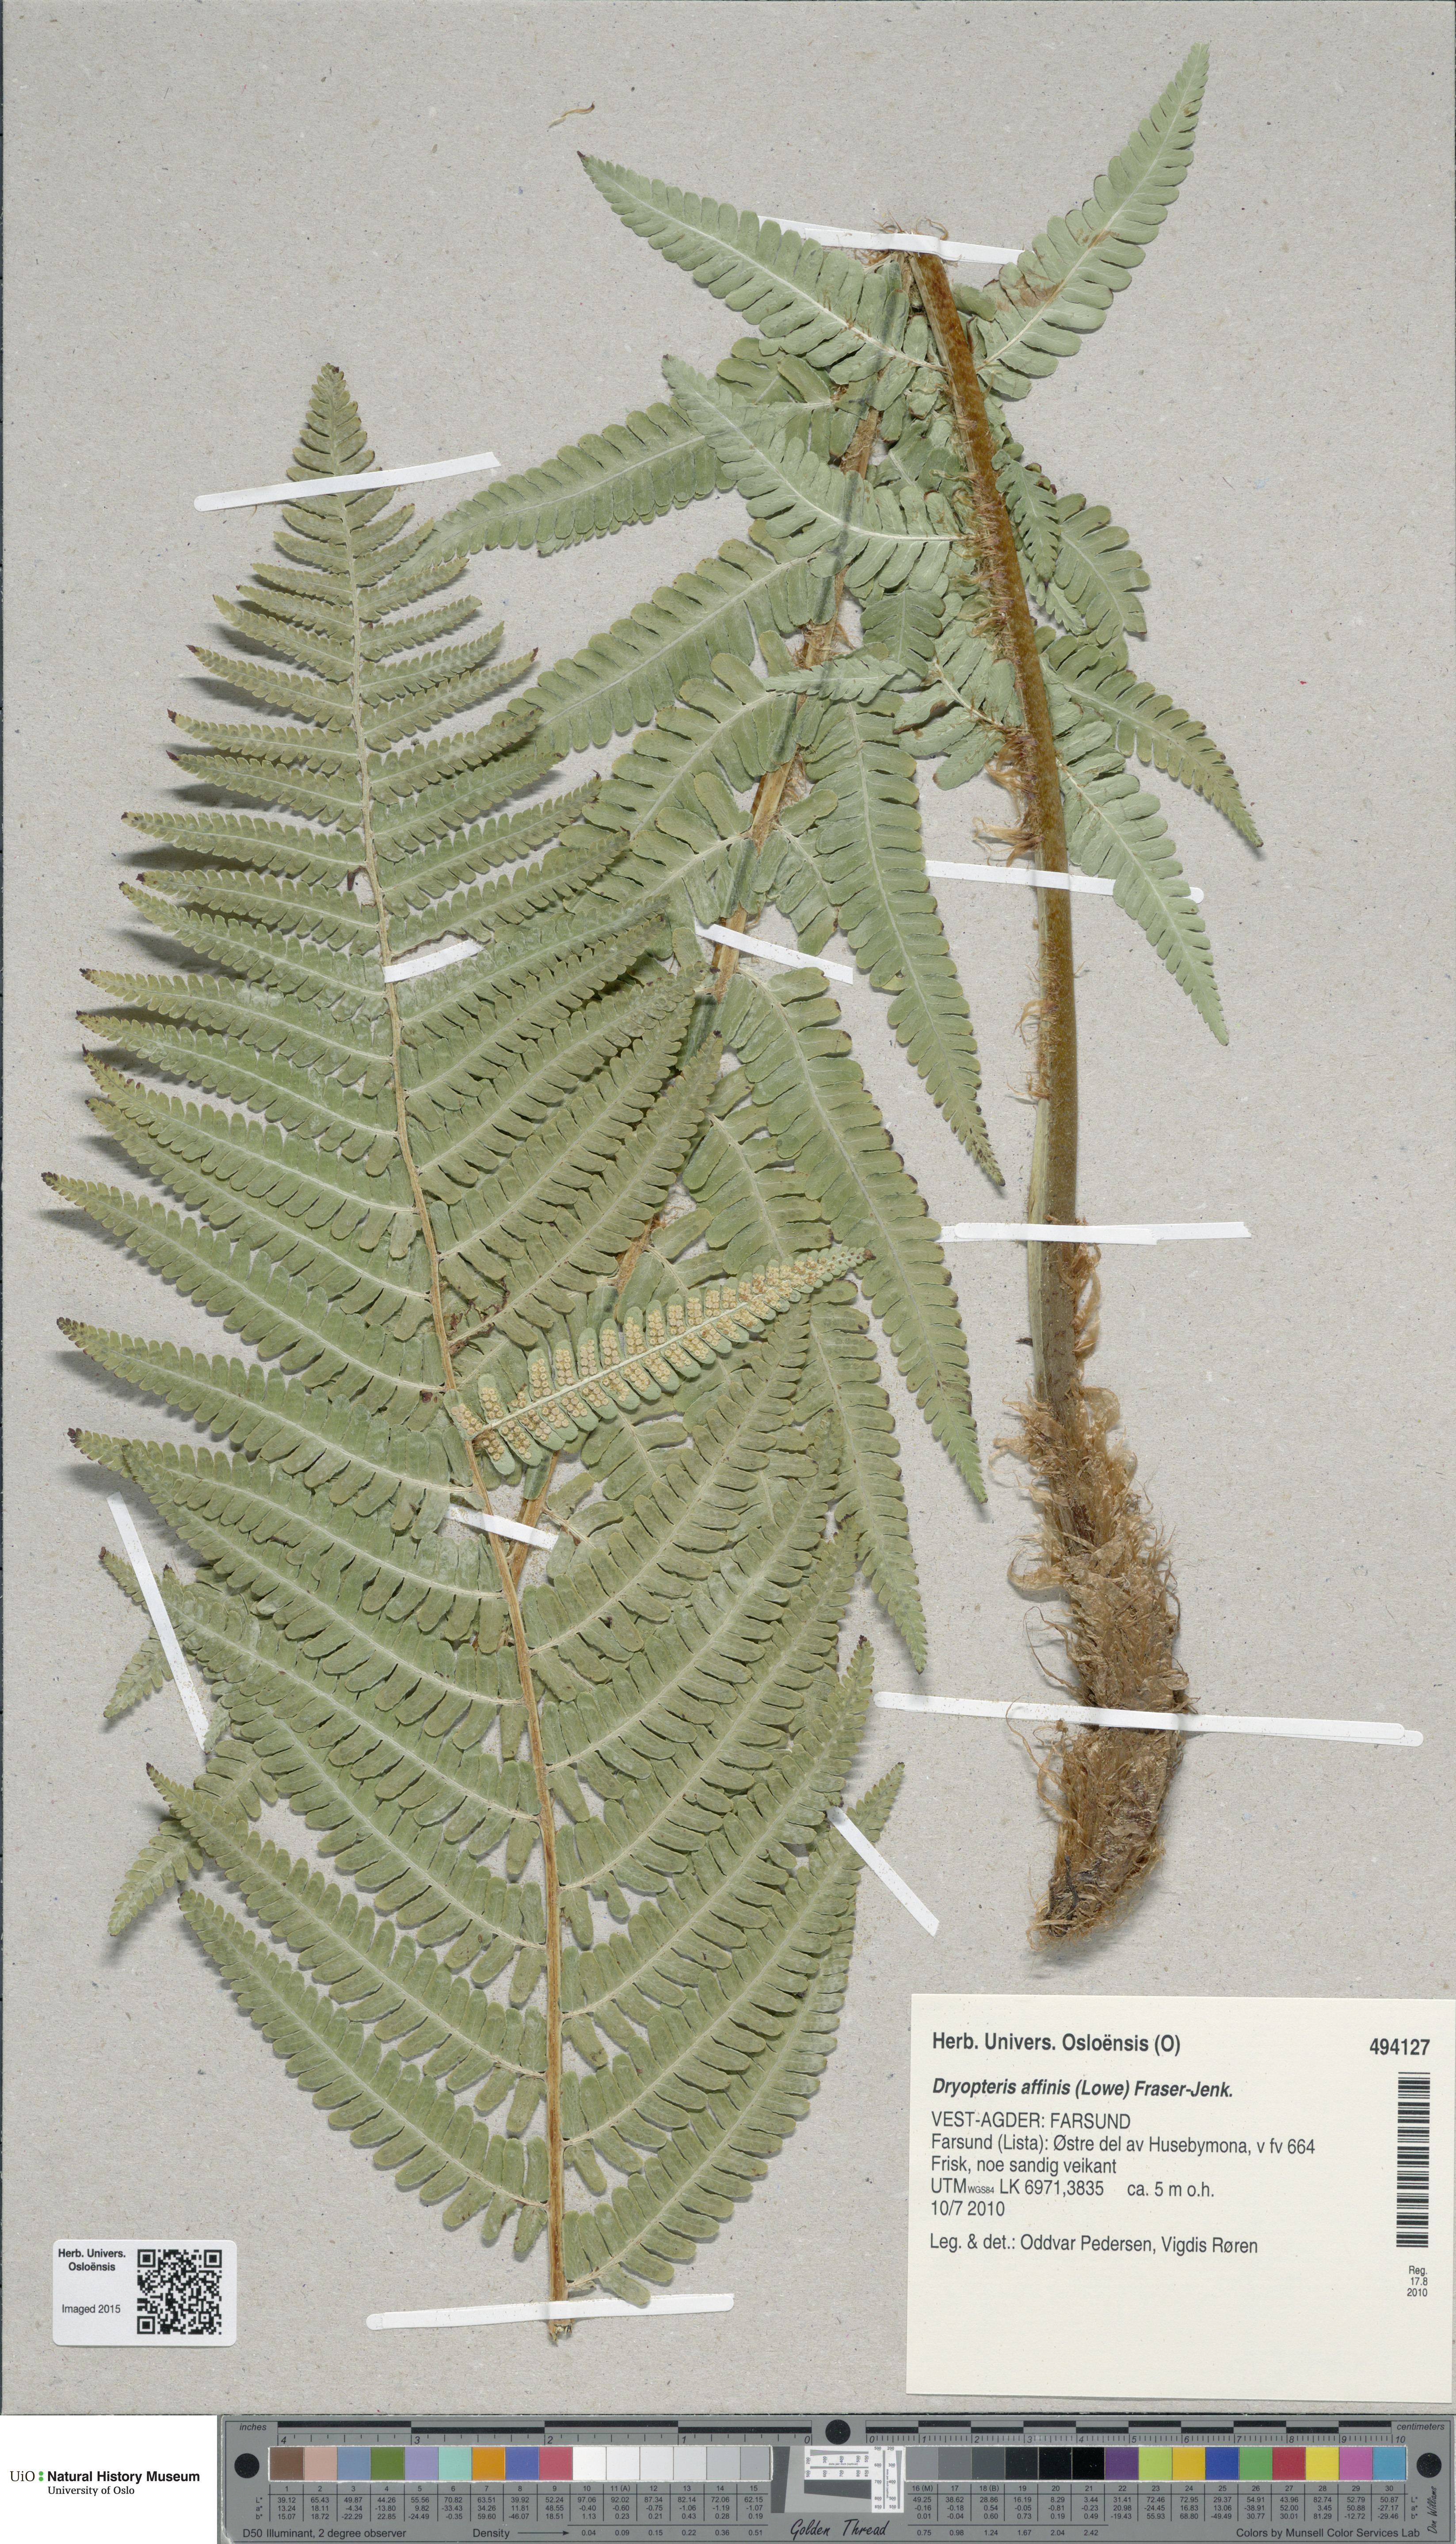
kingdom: Plantae
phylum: Tracheophyta
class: Polypodiopsida
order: Polypodiales
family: Dryopteridaceae
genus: Dryopteris
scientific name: Dryopteris affinis
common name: Scaly male fern
